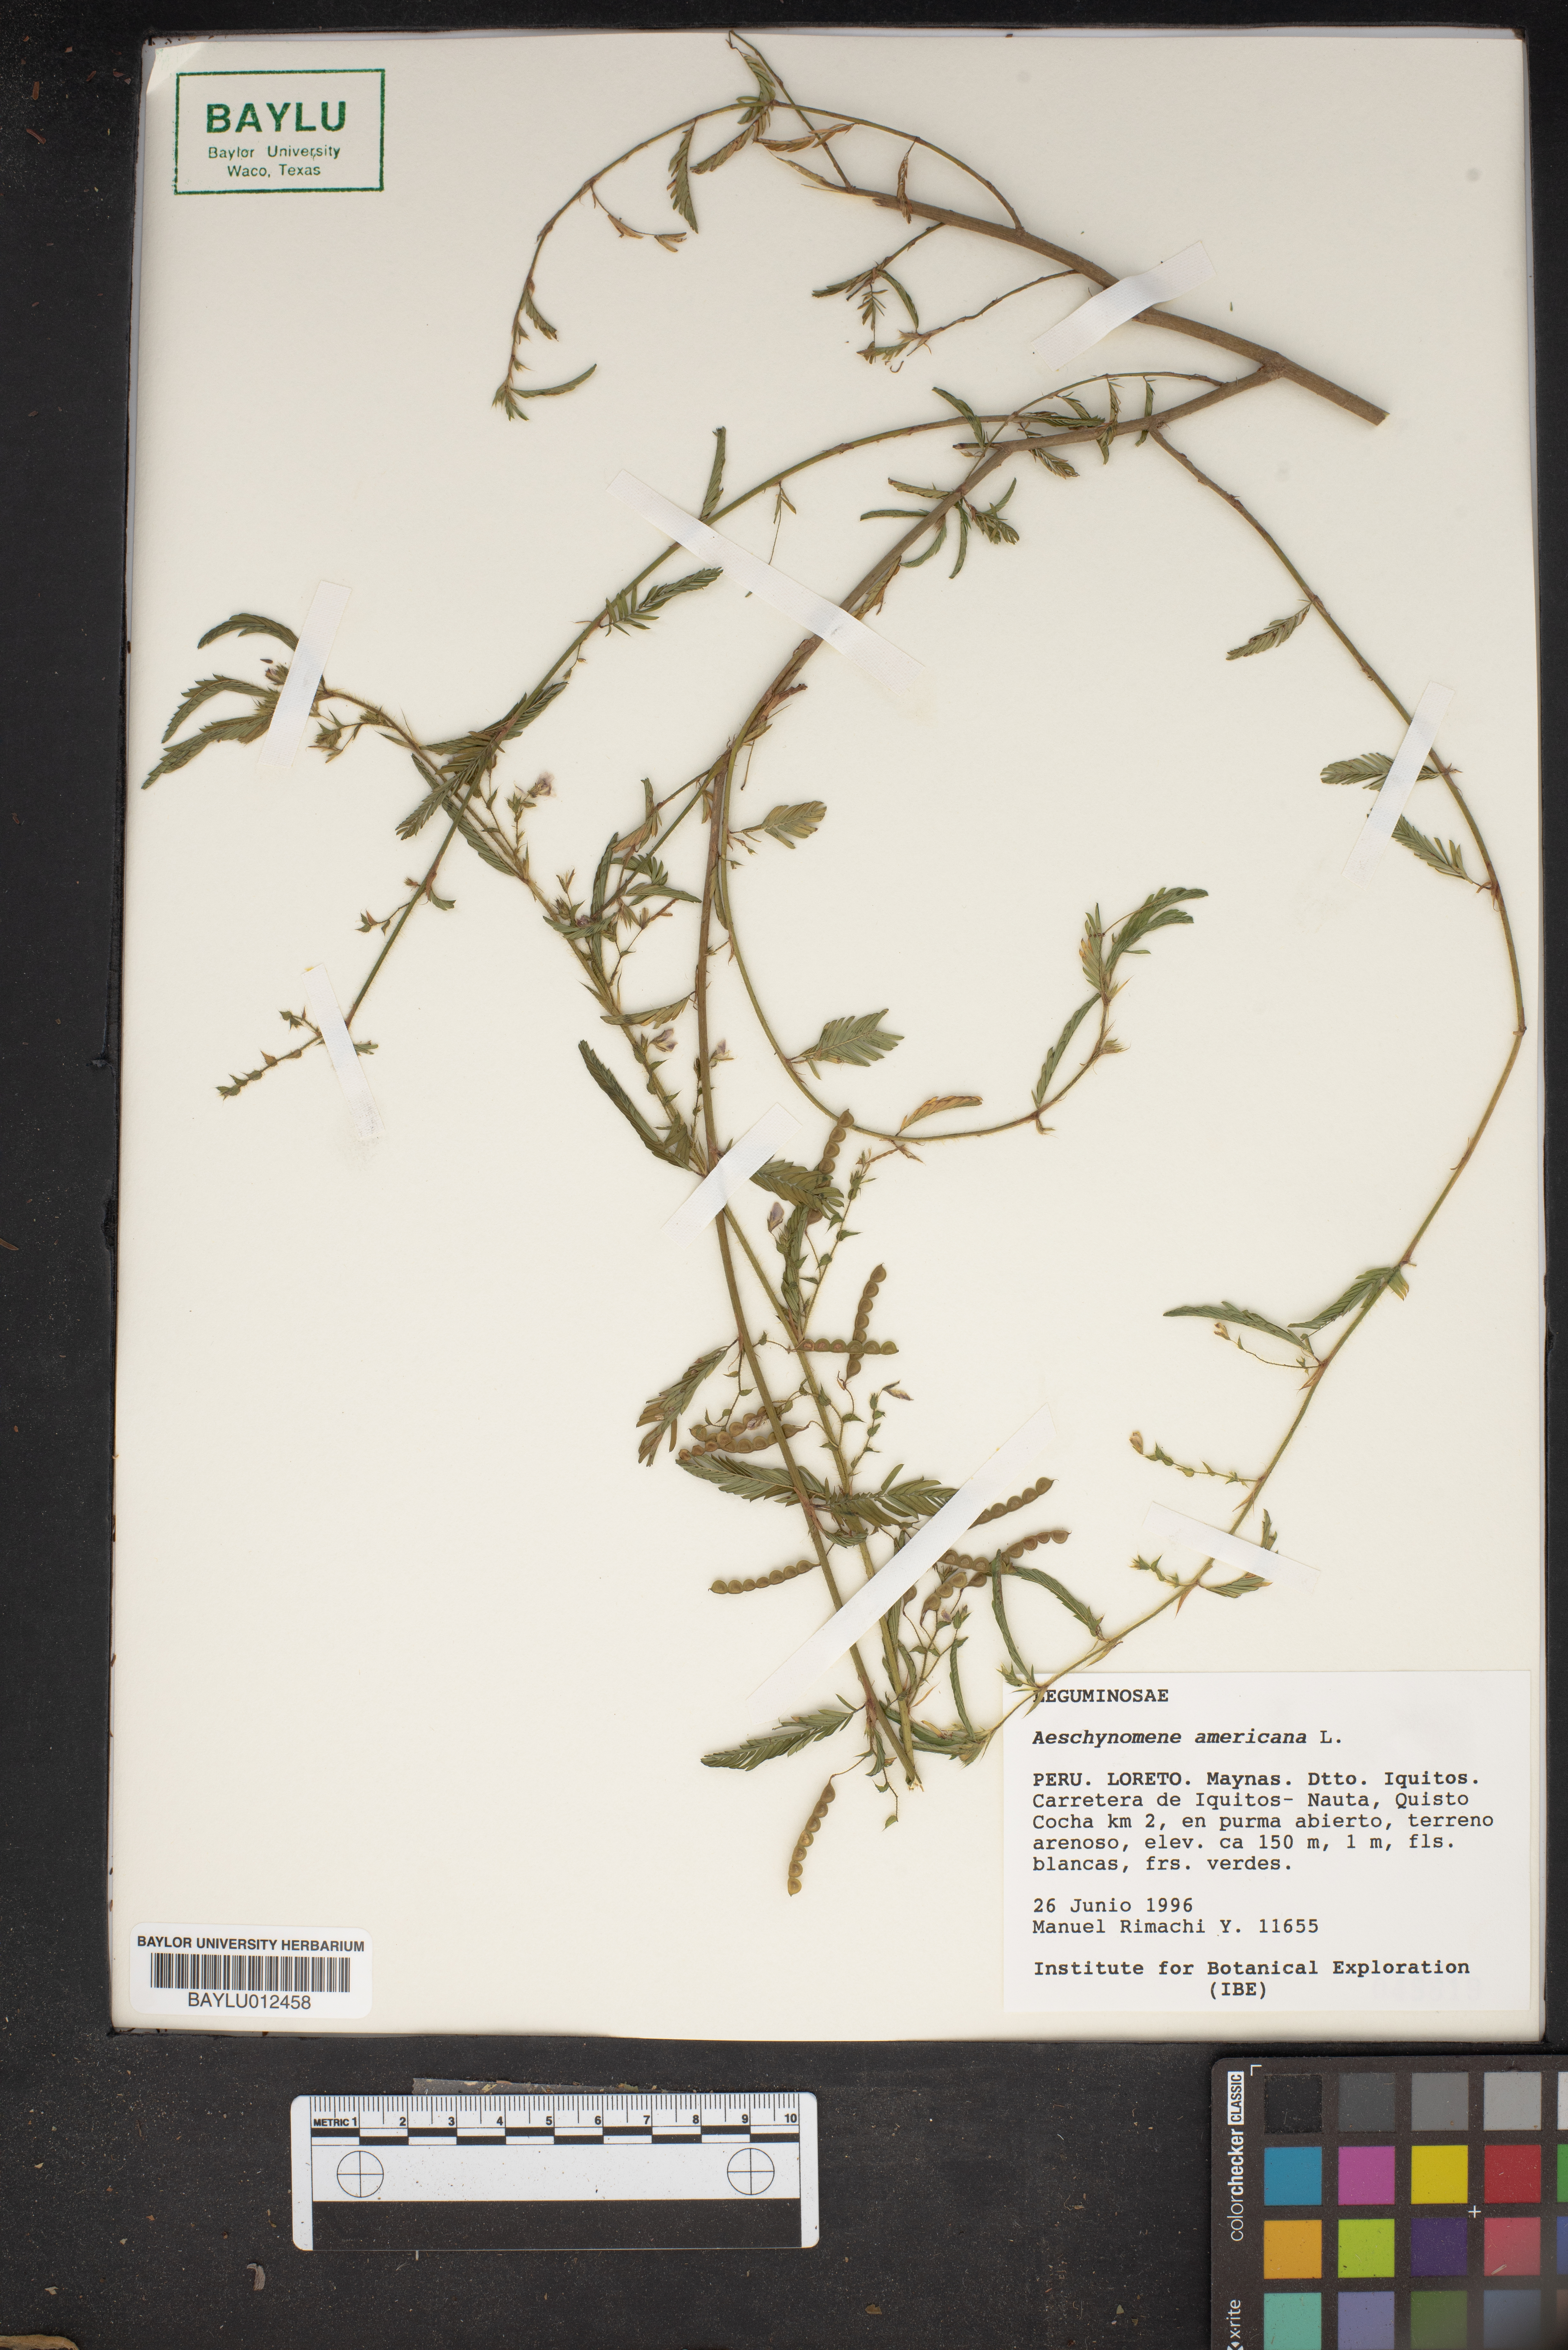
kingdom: Plantae
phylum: Tracheophyta
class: Magnoliopsida
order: Fabales
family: Fabaceae
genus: Aeschynomene
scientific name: Aeschynomene villosa
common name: Hairy-jointvetch
